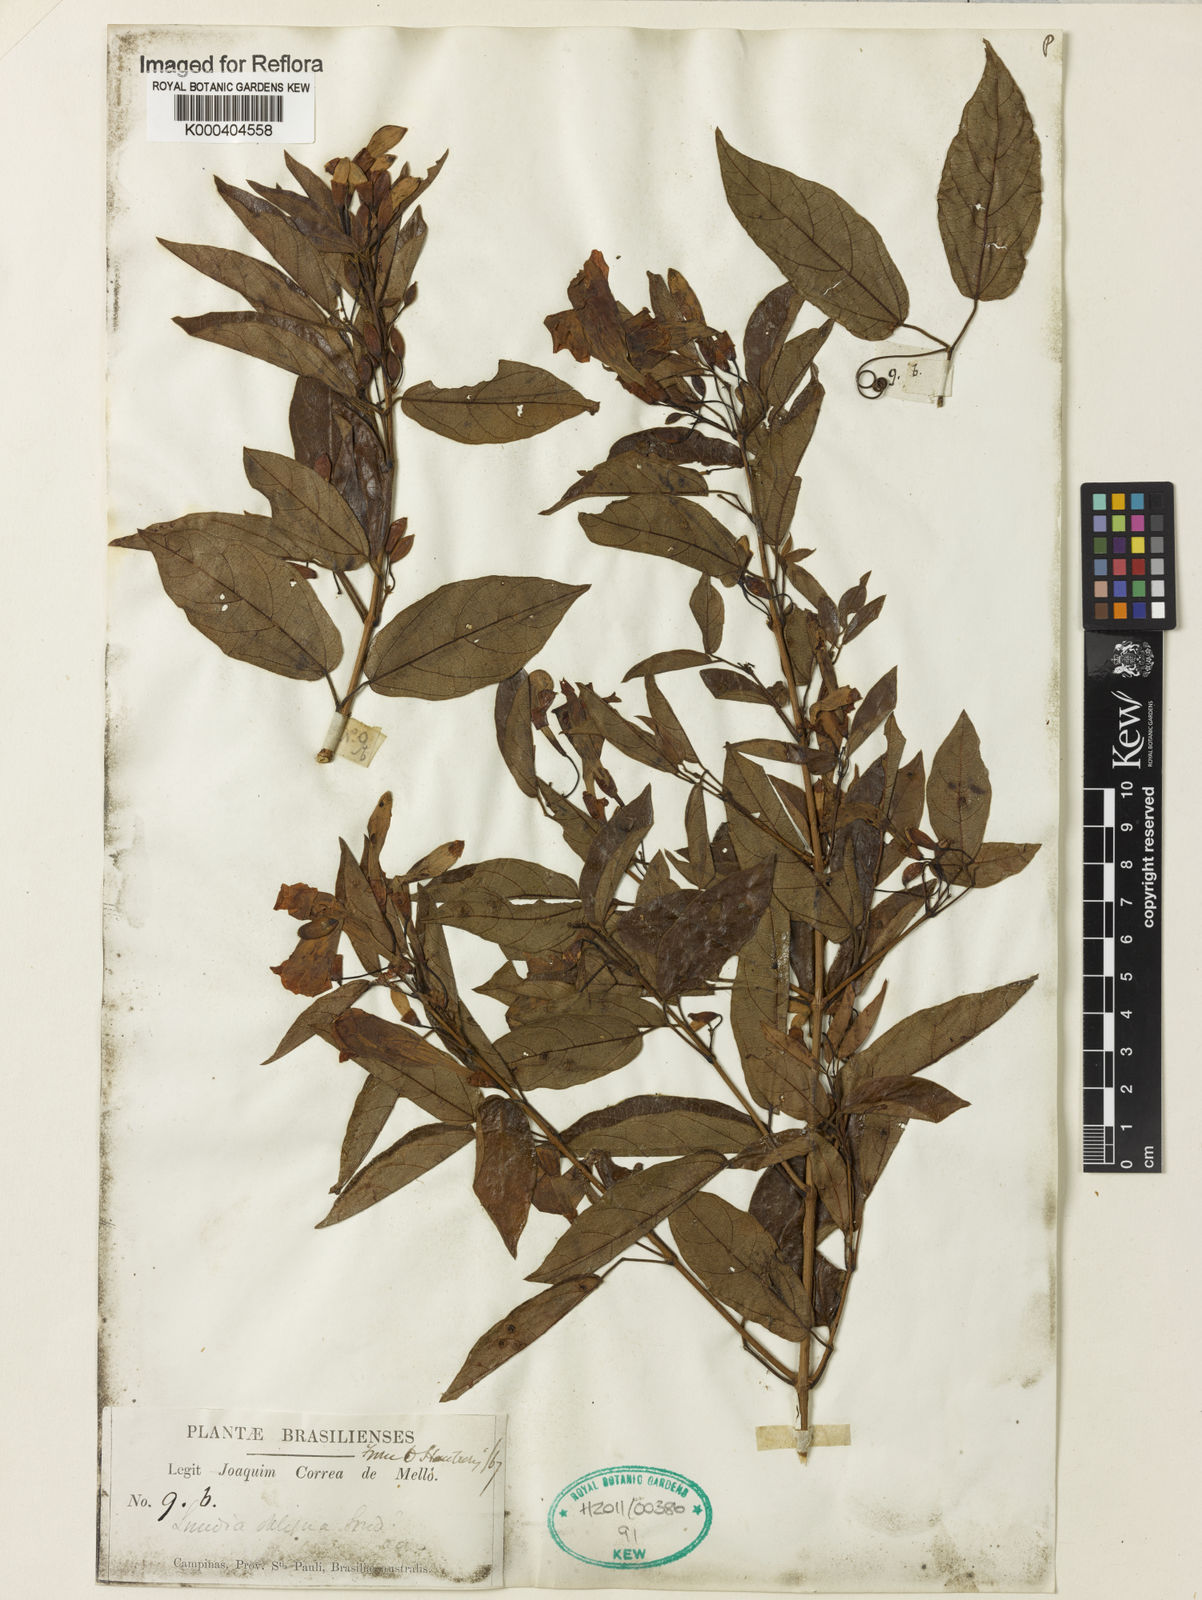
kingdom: Plantae
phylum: Tracheophyta
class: Magnoliopsida
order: Lamiales
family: Bignoniaceae
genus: Lundia
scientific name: Lundia obliqua
